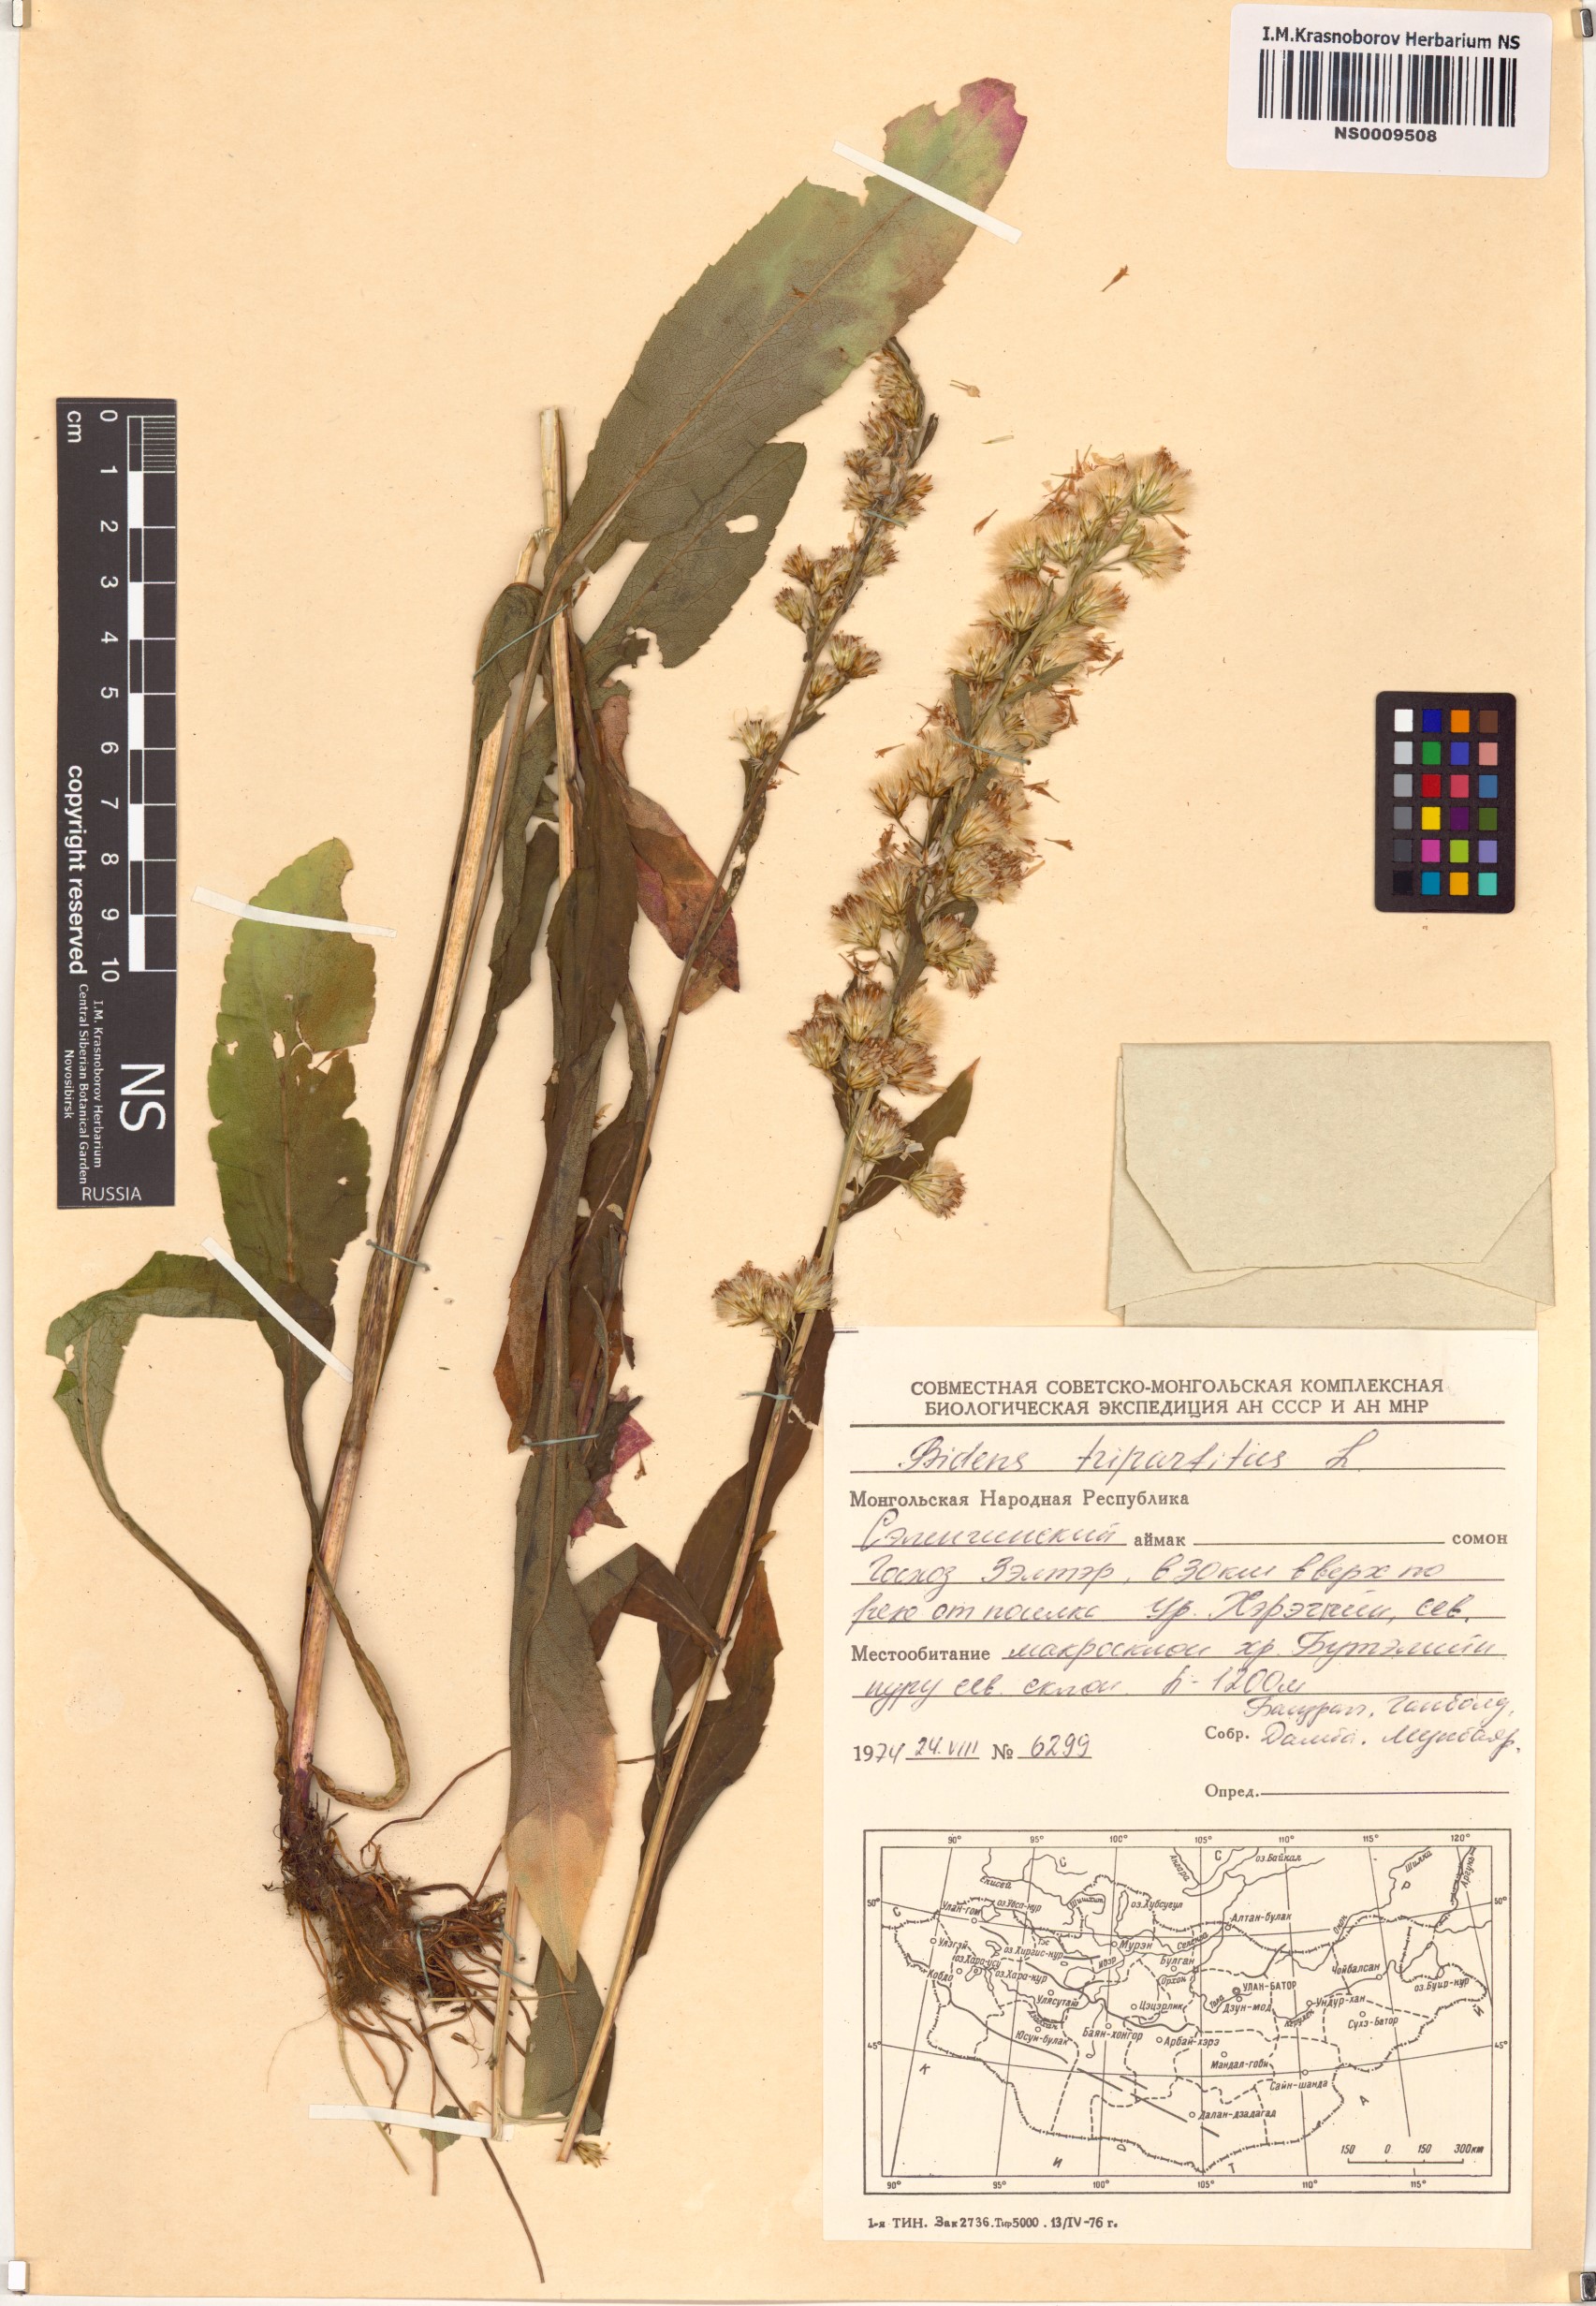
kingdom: Plantae
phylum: Tracheophyta
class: Magnoliopsida
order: Asterales
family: Asteraceae
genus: Bidens
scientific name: Bidens tripartita
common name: Trifid bur-marigold
